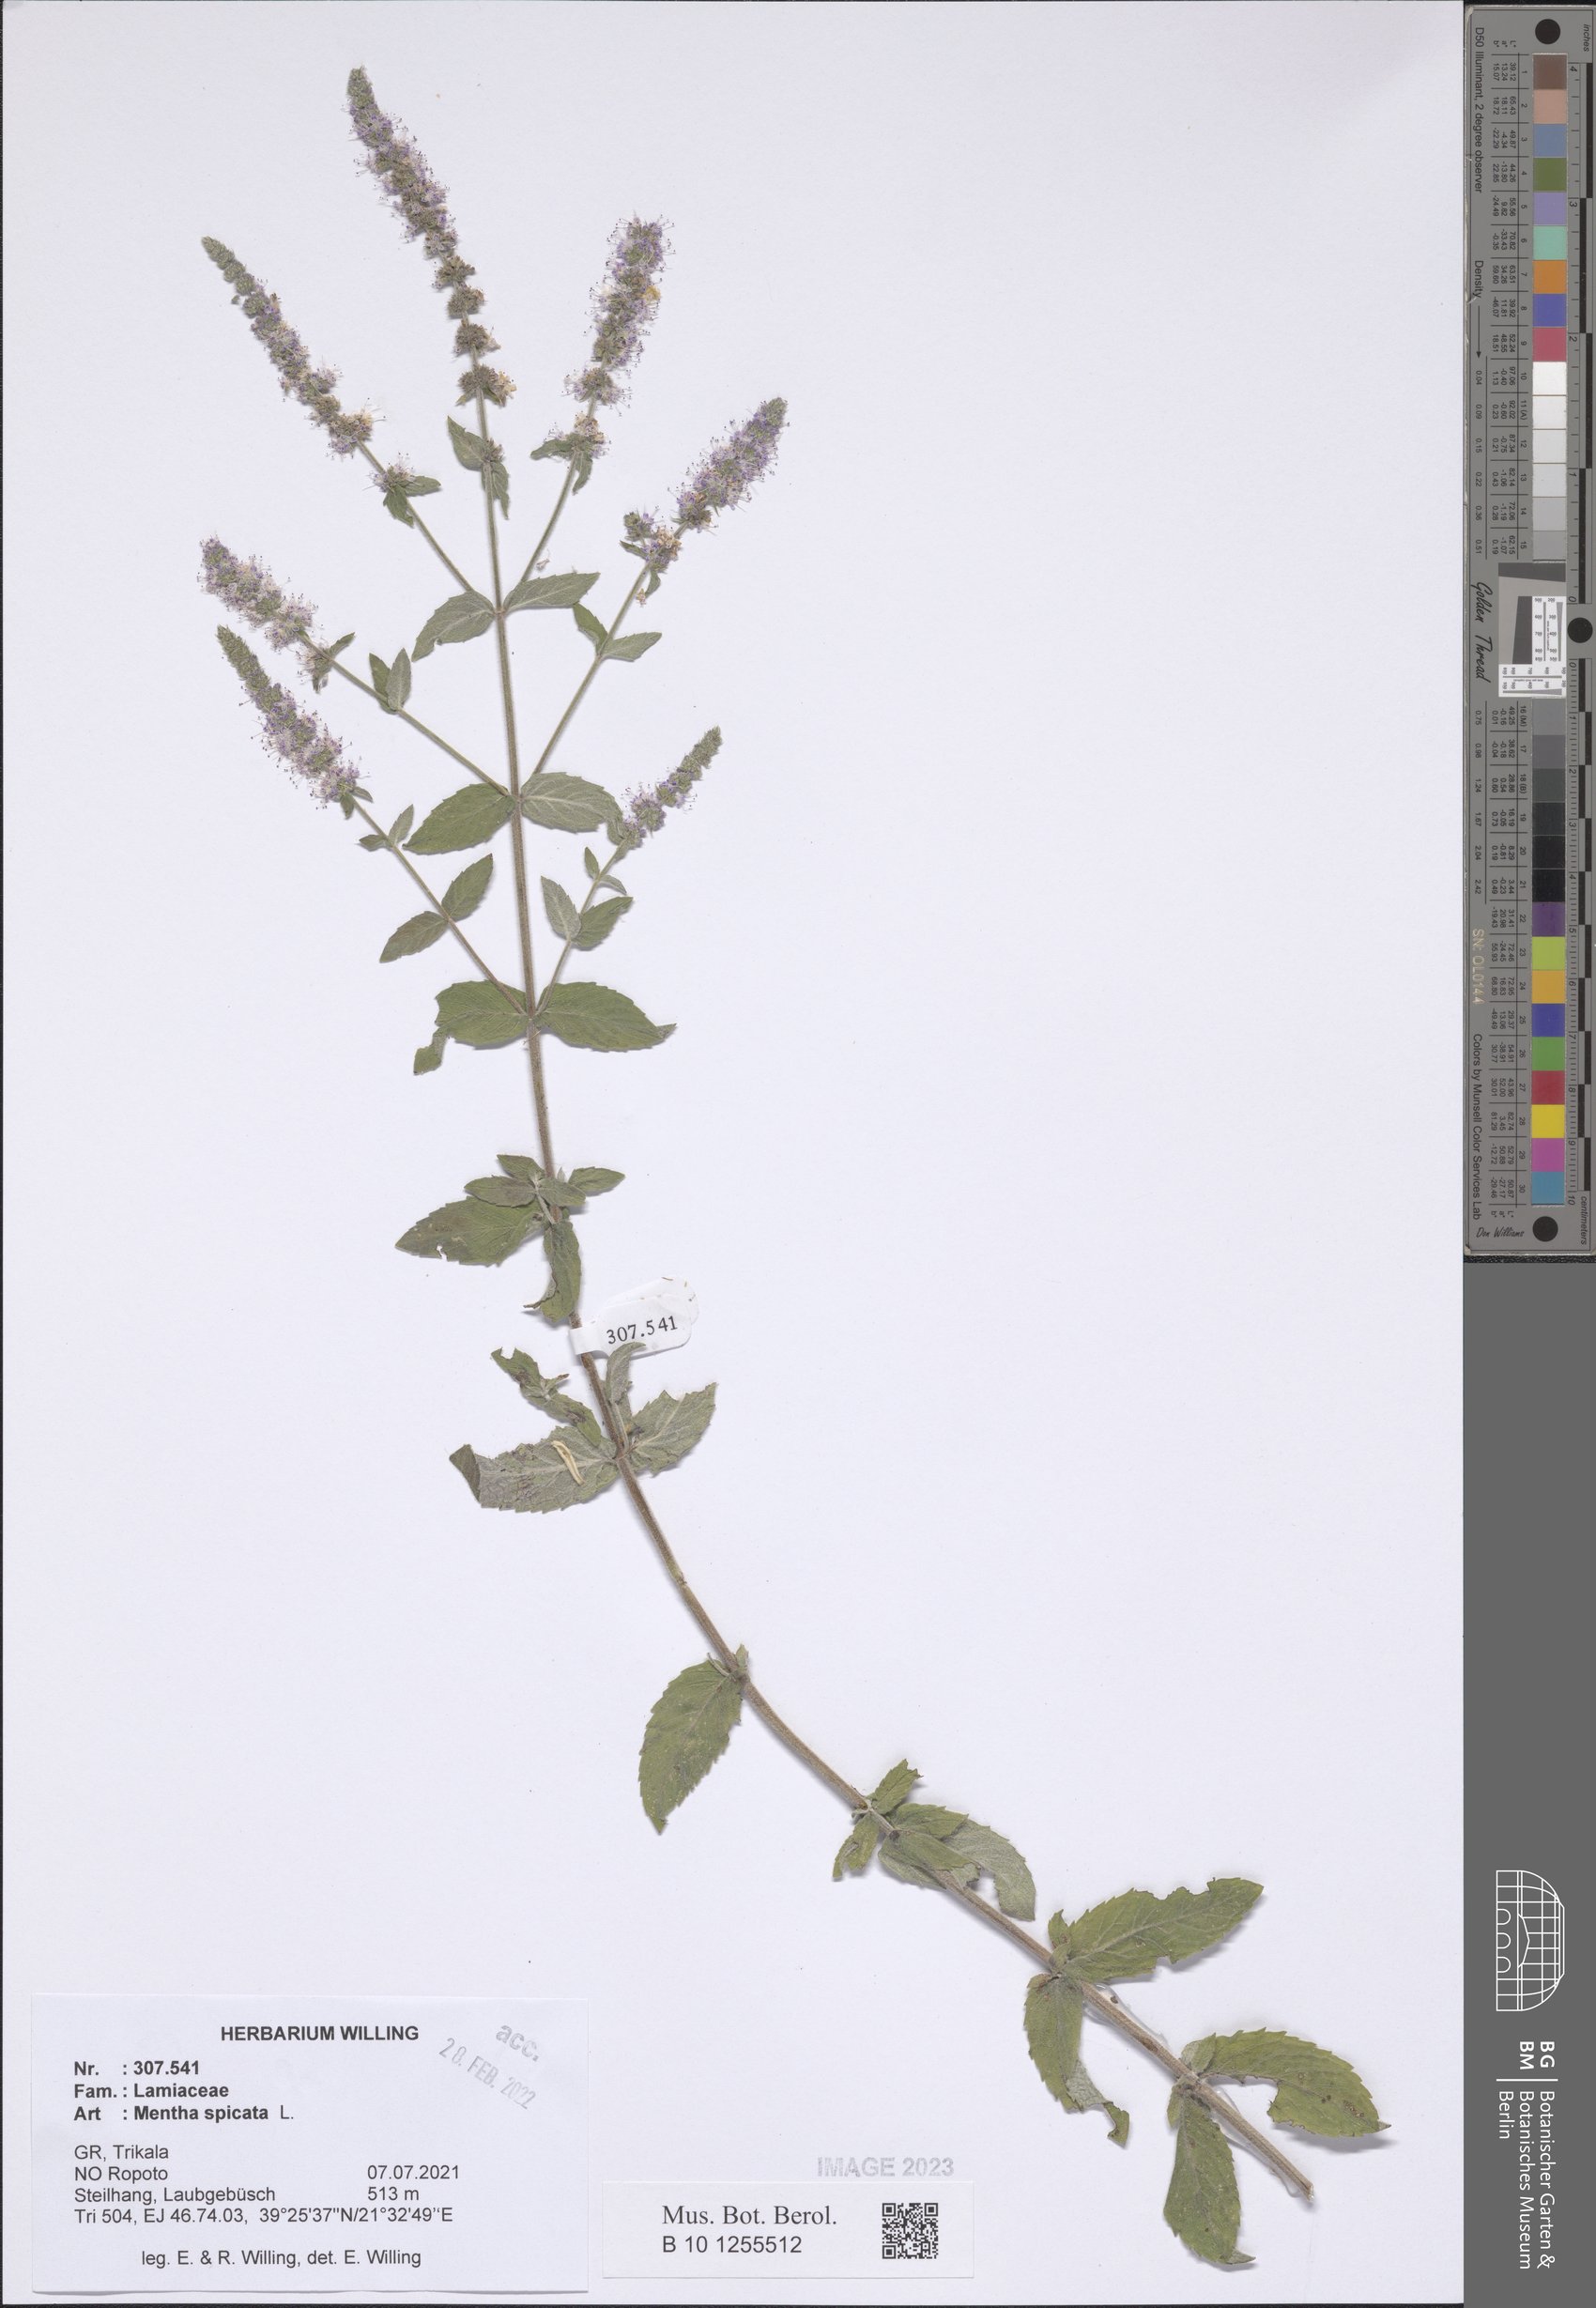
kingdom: Plantae
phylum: Tracheophyta
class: Magnoliopsida
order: Lamiales
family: Lamiaceae
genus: Mentha
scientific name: Mentha spicata
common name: Spearmint
